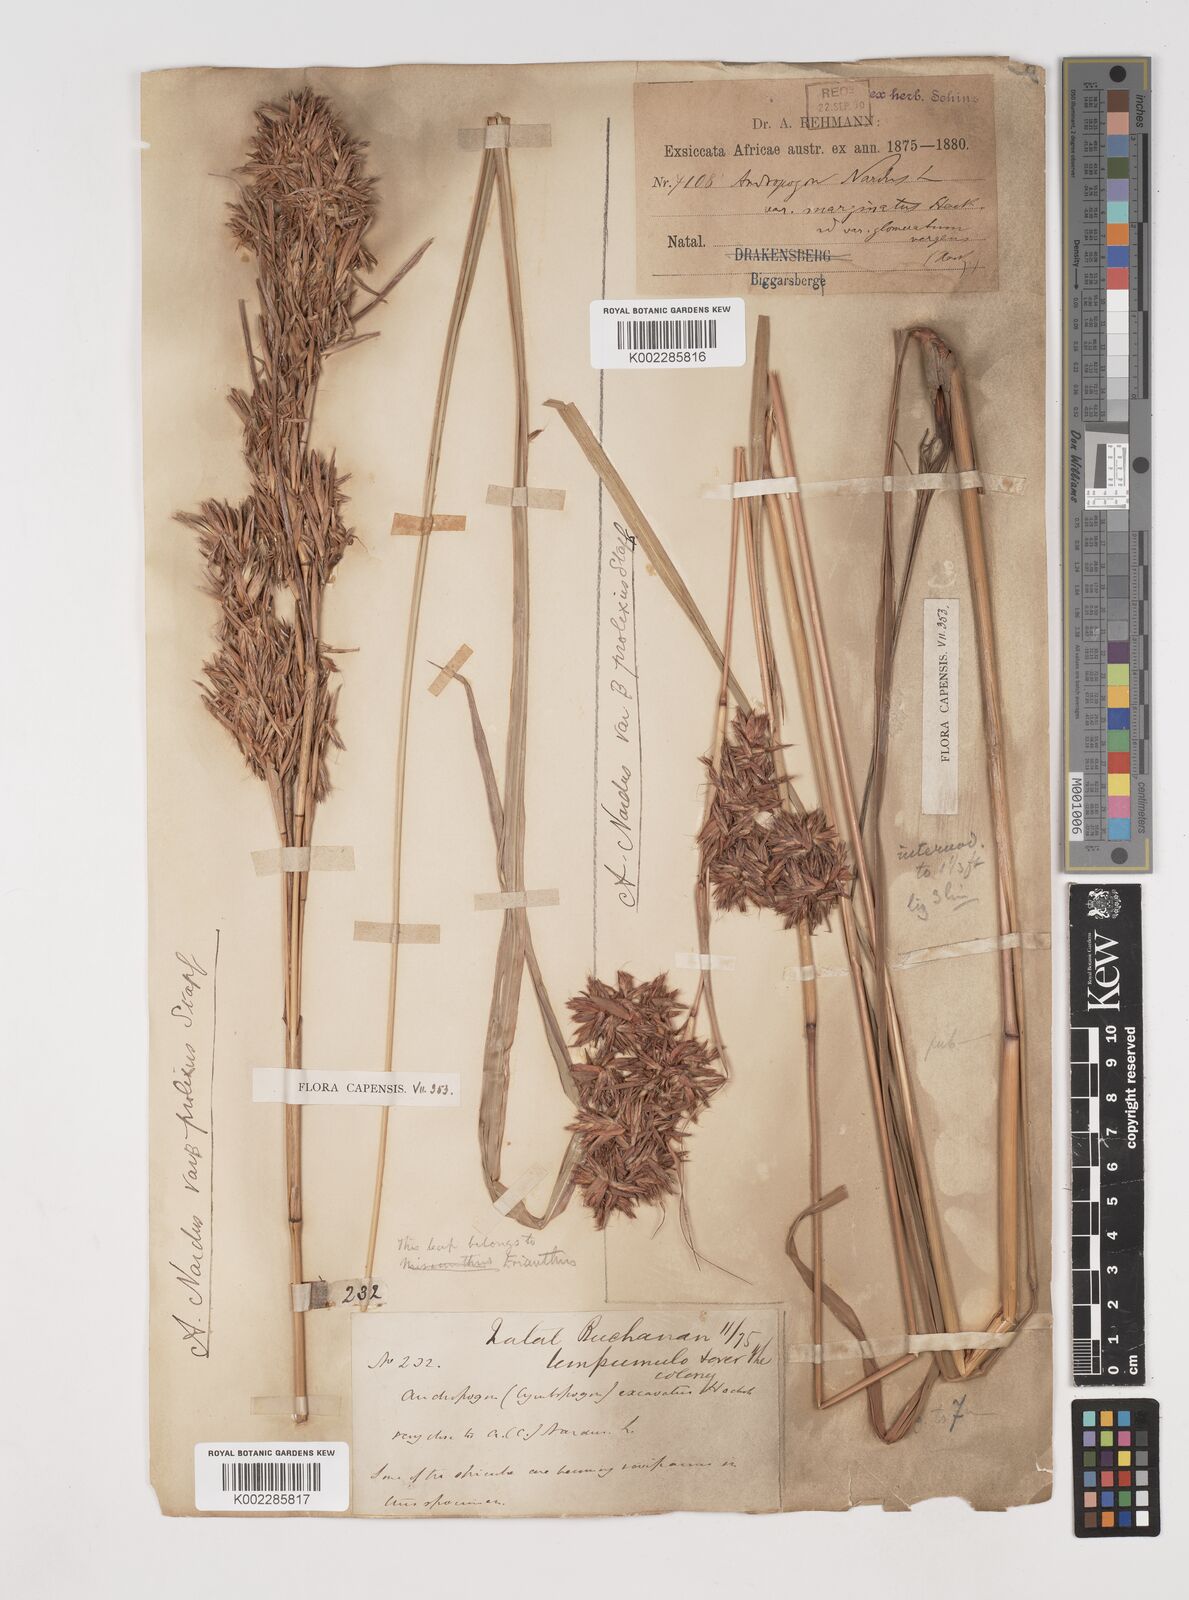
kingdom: Plantae
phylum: Tracheophyta
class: Liliopsida
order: Poales
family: Poaceae
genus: Cymbopogon
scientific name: Cymbopogon nardus
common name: Giant turpentine grass
